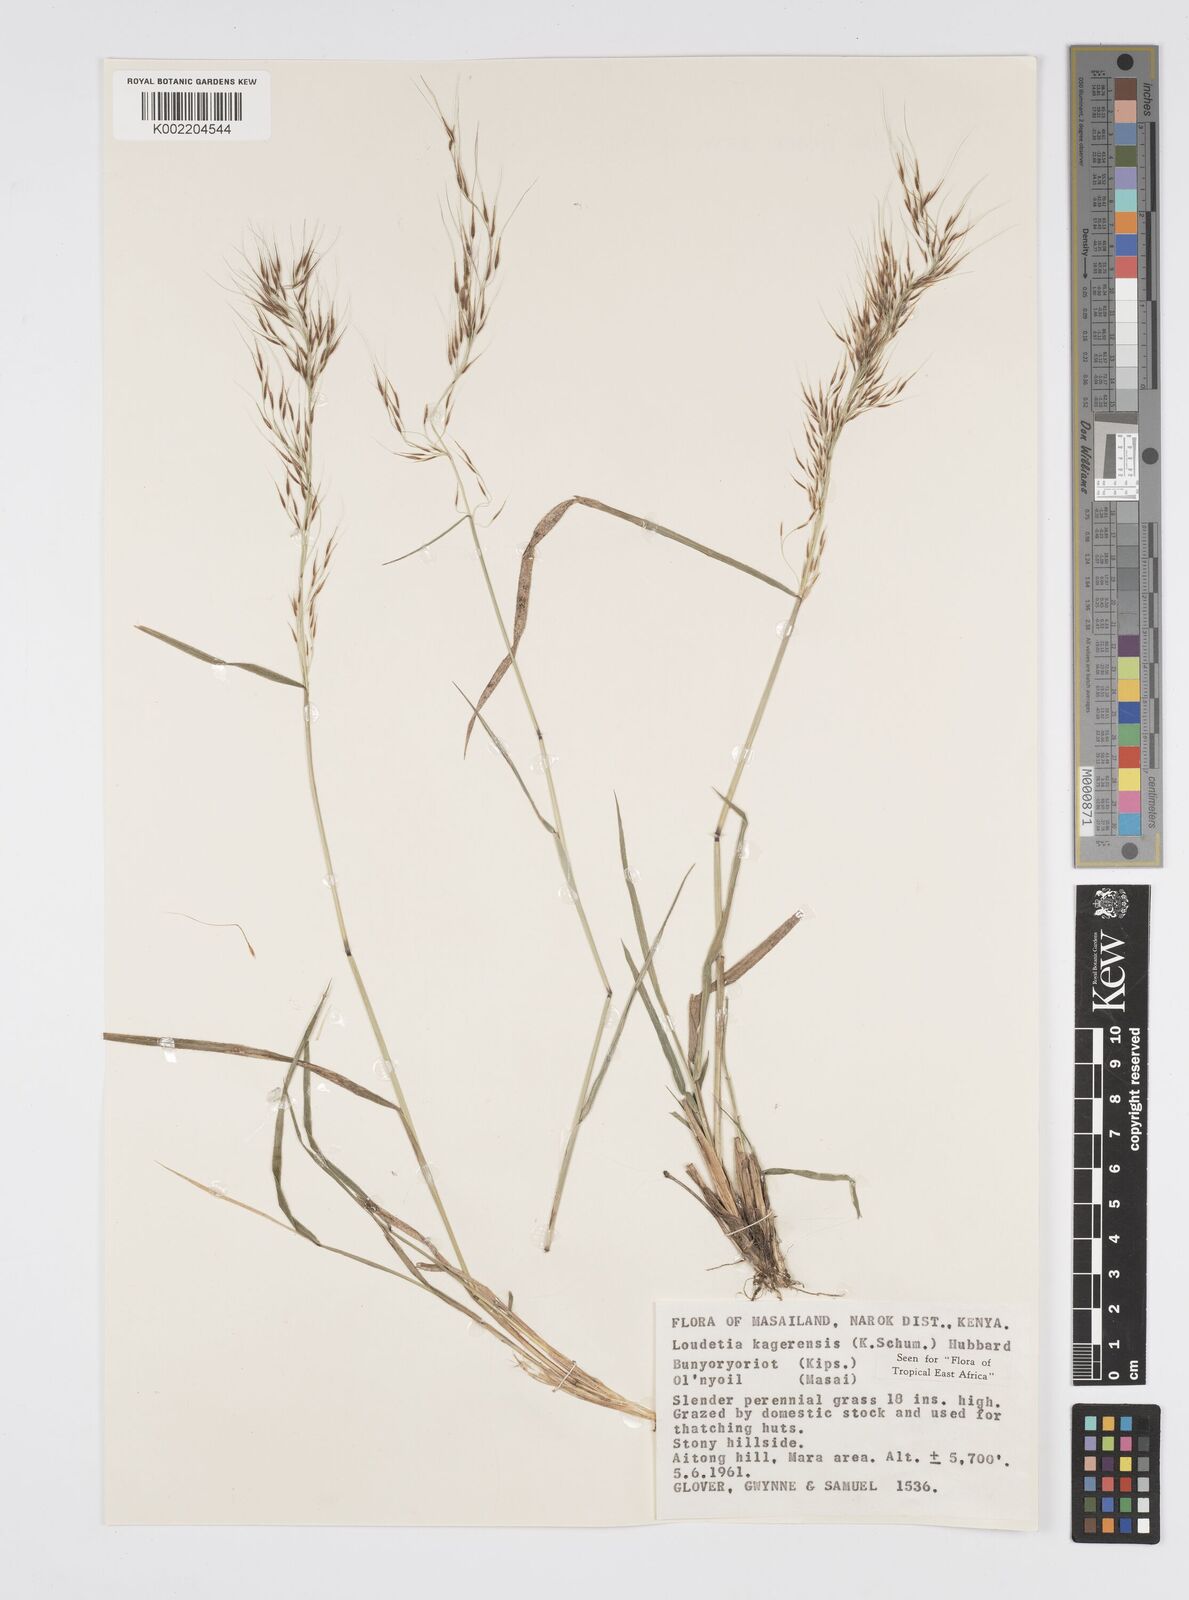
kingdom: Plantae
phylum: Tracheophyta
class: Liliopsida
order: Poales
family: Poaceae
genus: Loudetia
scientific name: Loudetia kagerensis
